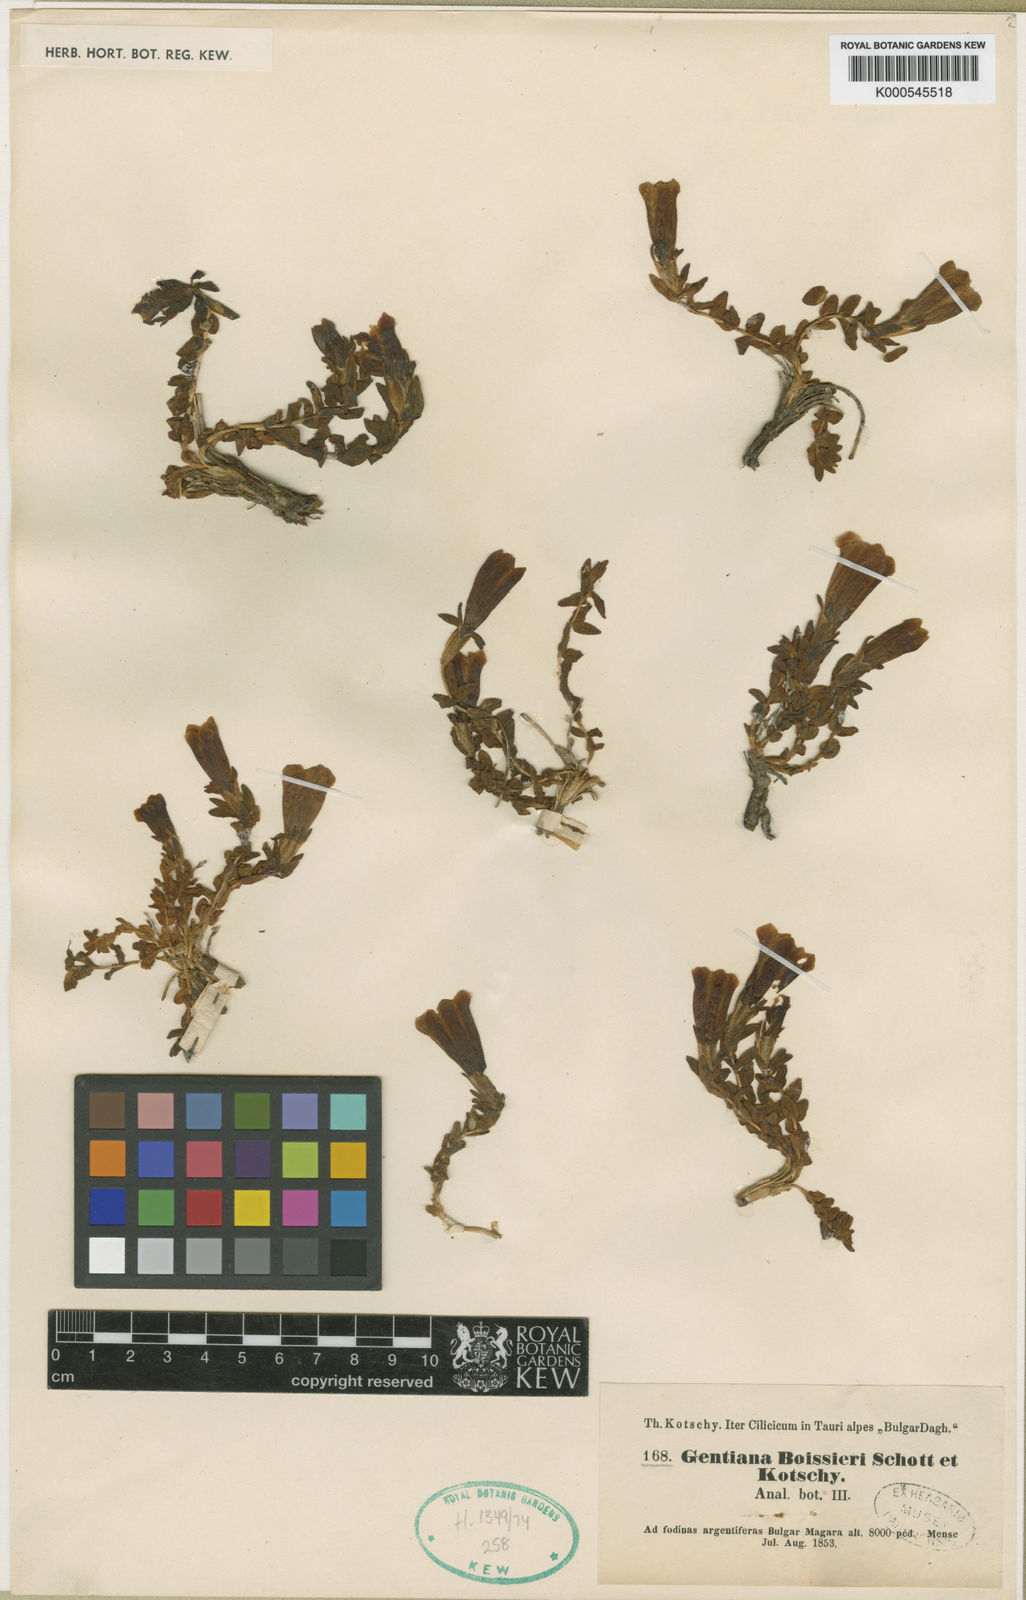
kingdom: Plantae
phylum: Tracheophyta
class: Magnoliopsida
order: Gentianales
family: Gentianaceae
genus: Gentiana
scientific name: Gentiana boissieri
